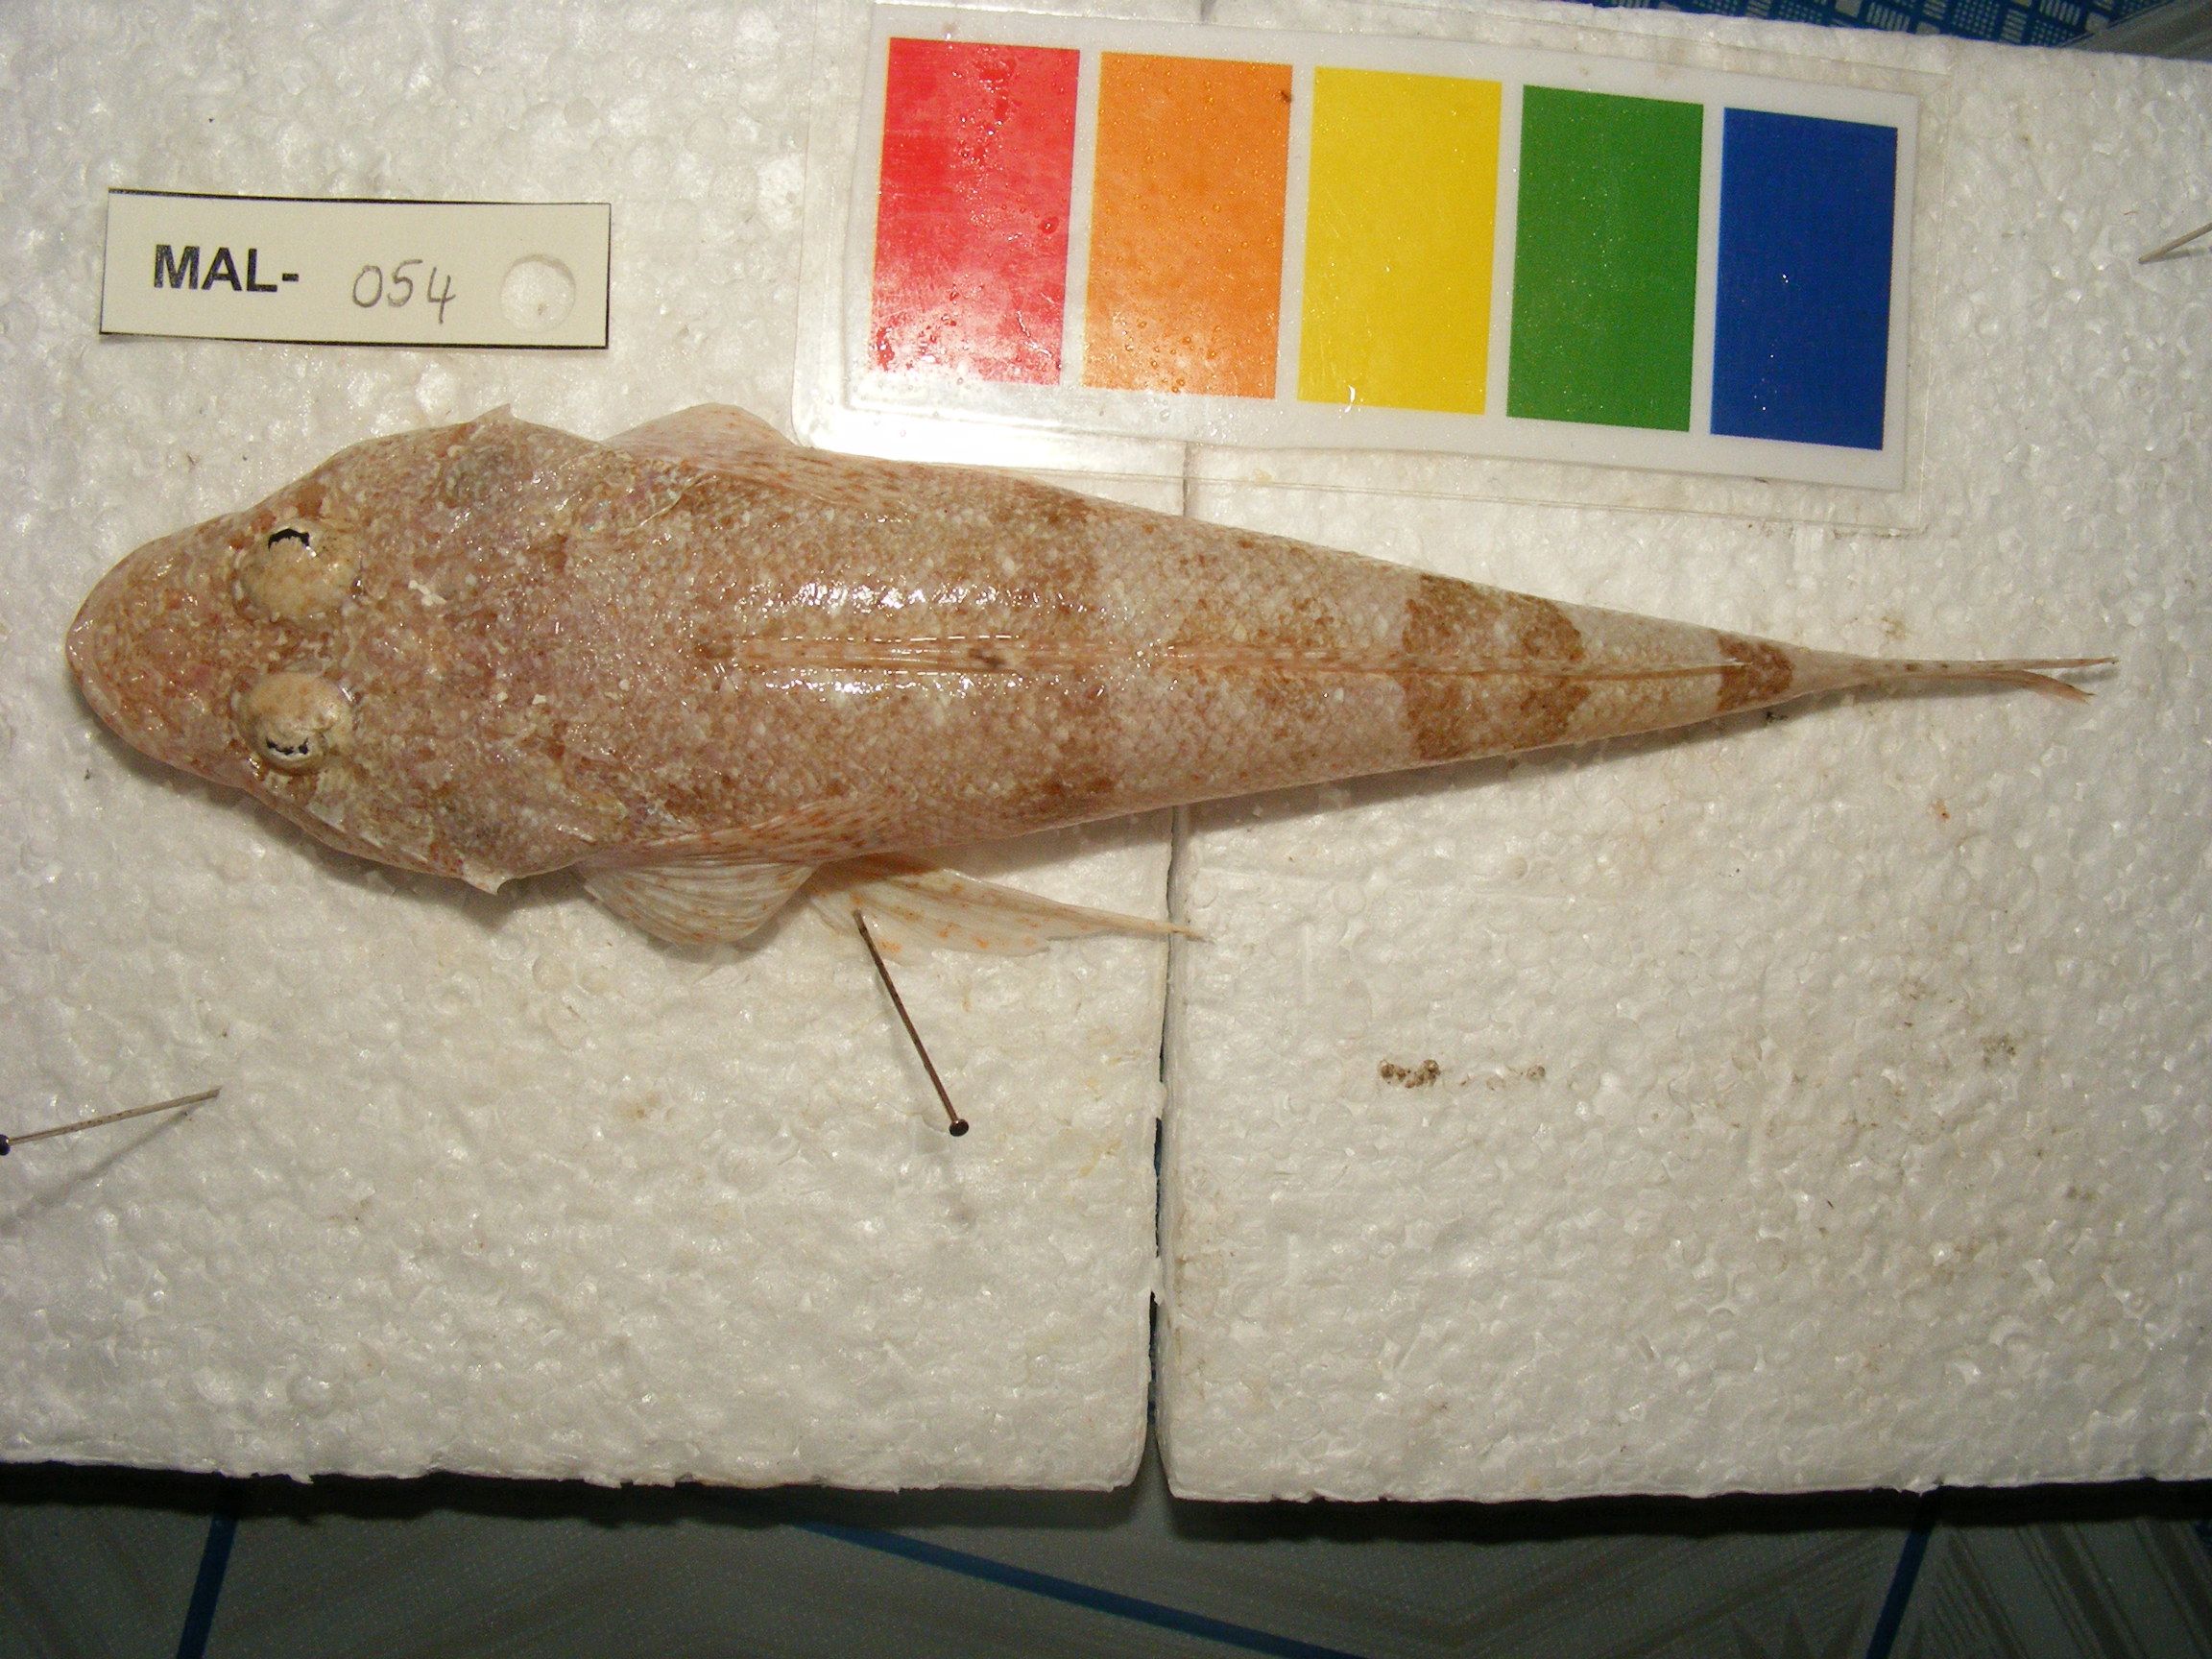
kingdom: Animalia
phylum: Chordata
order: Scorpaeniformes
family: Platycephalidae
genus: Sunagocia
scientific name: Sunagocia otaitensis
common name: Fringelip flathead
